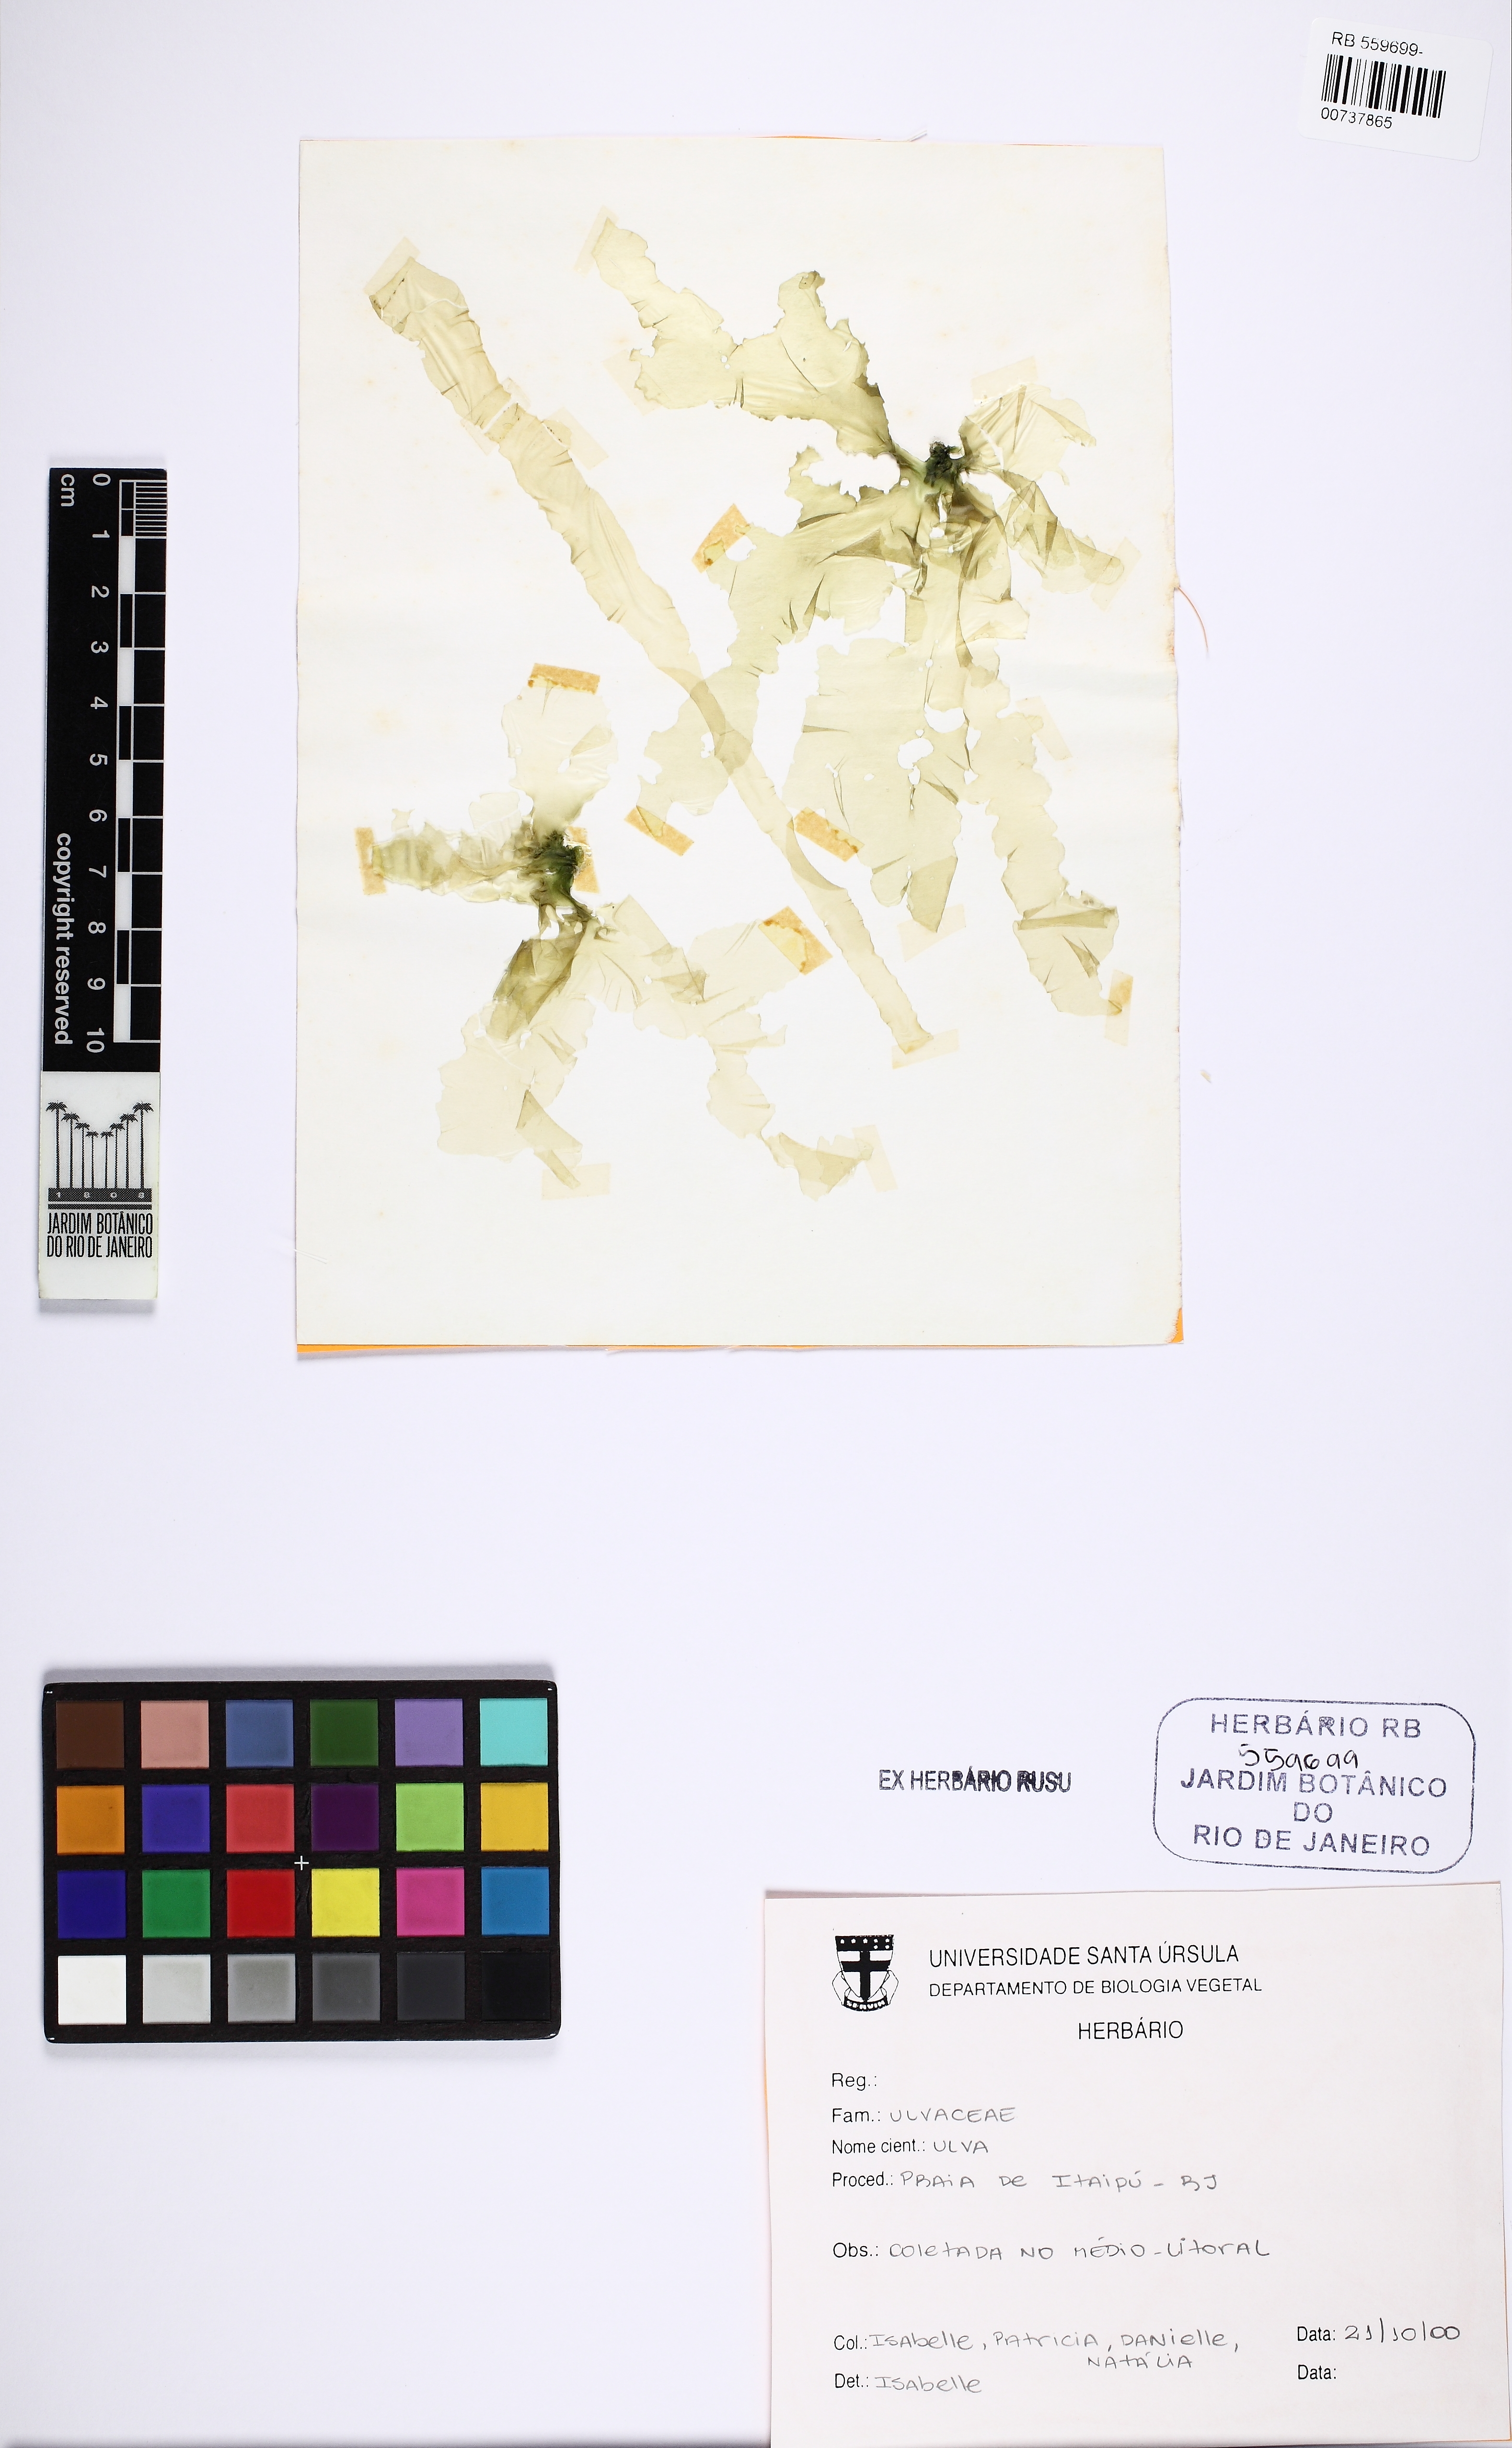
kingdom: Plantae
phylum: Chlorophyta
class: Ulvophyceae
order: Ulvales
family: Ulvaceae
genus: Ulva
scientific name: Ulva
